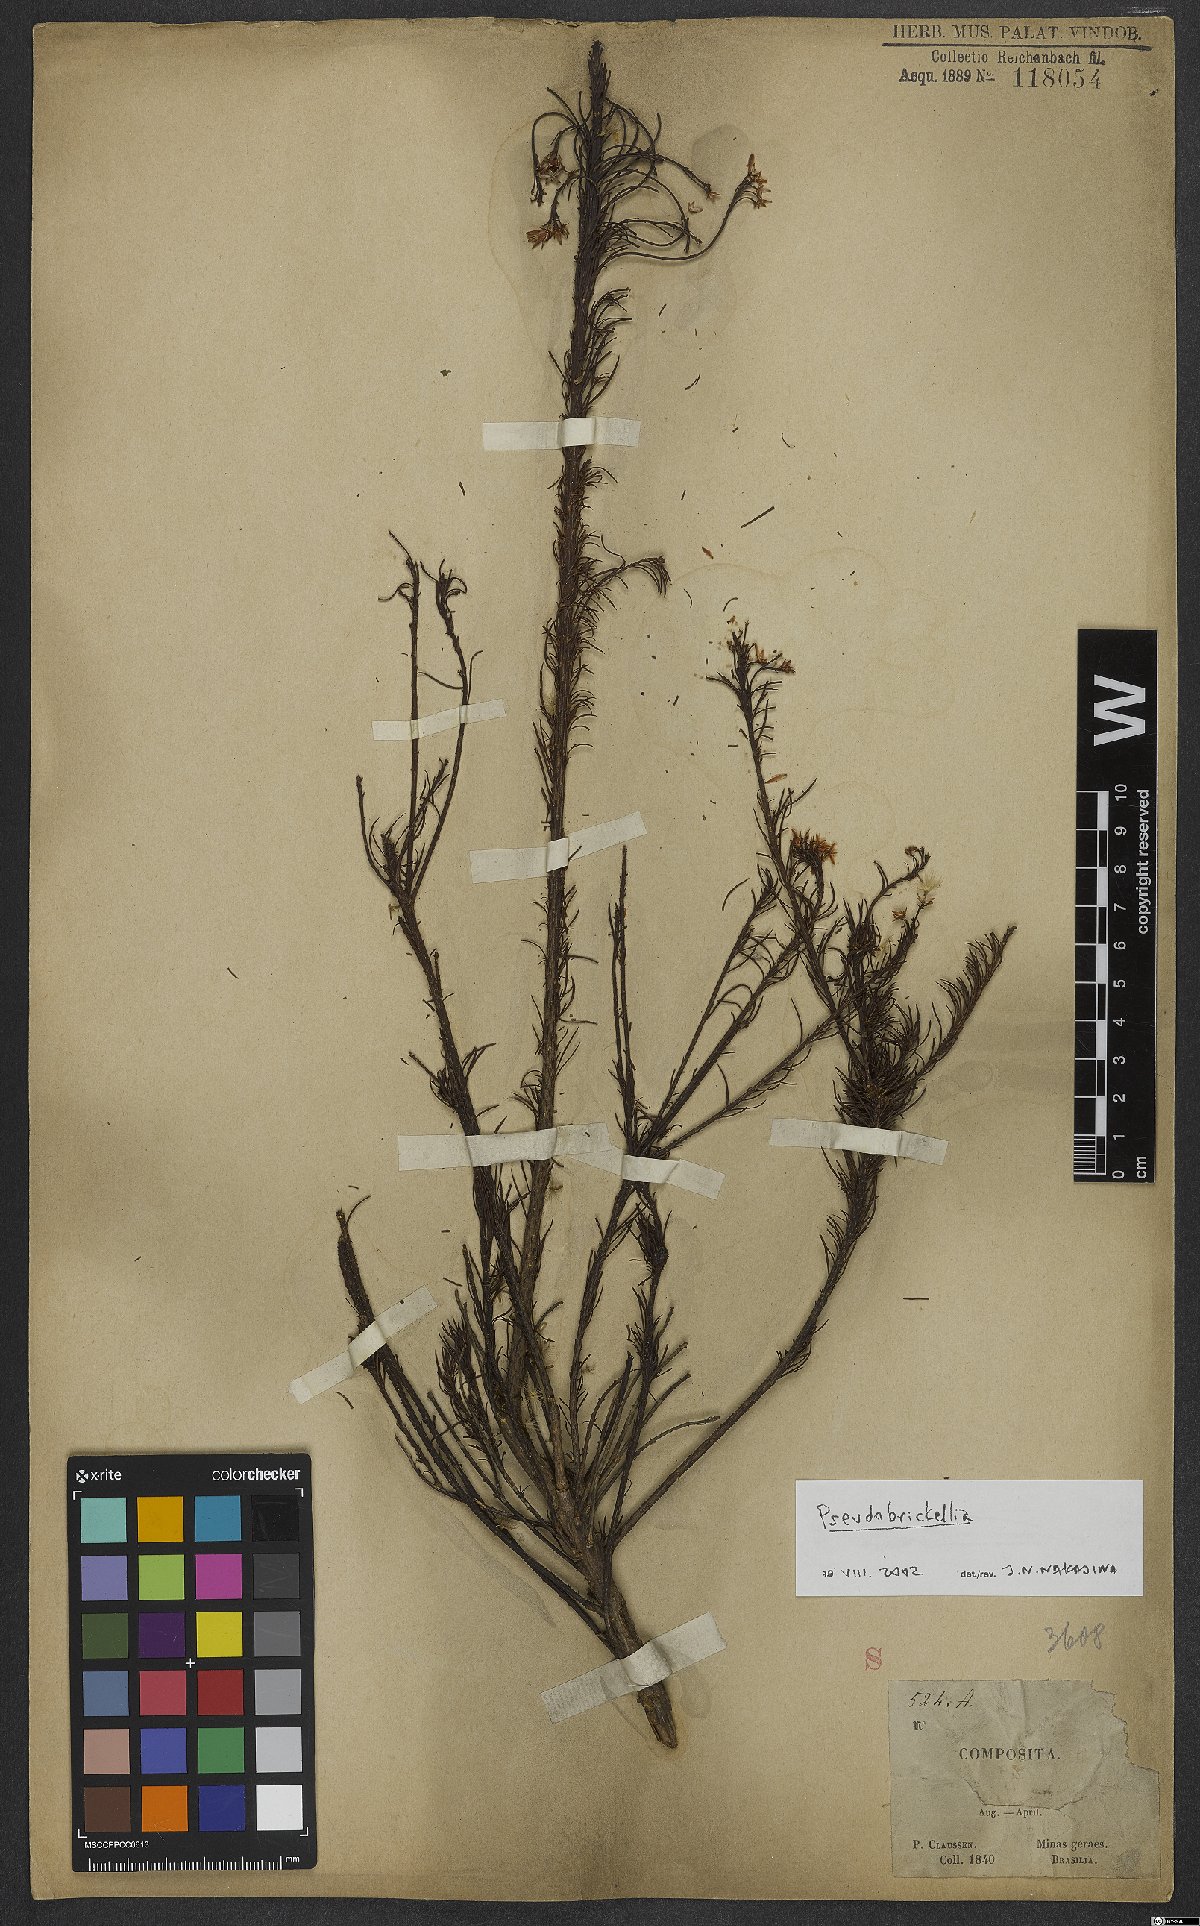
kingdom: Plantae
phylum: Tracheophyta
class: Magnoliopsida
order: Asterales
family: Asteraceae
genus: Pseudobrickellia
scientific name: Pseudobrickellia
